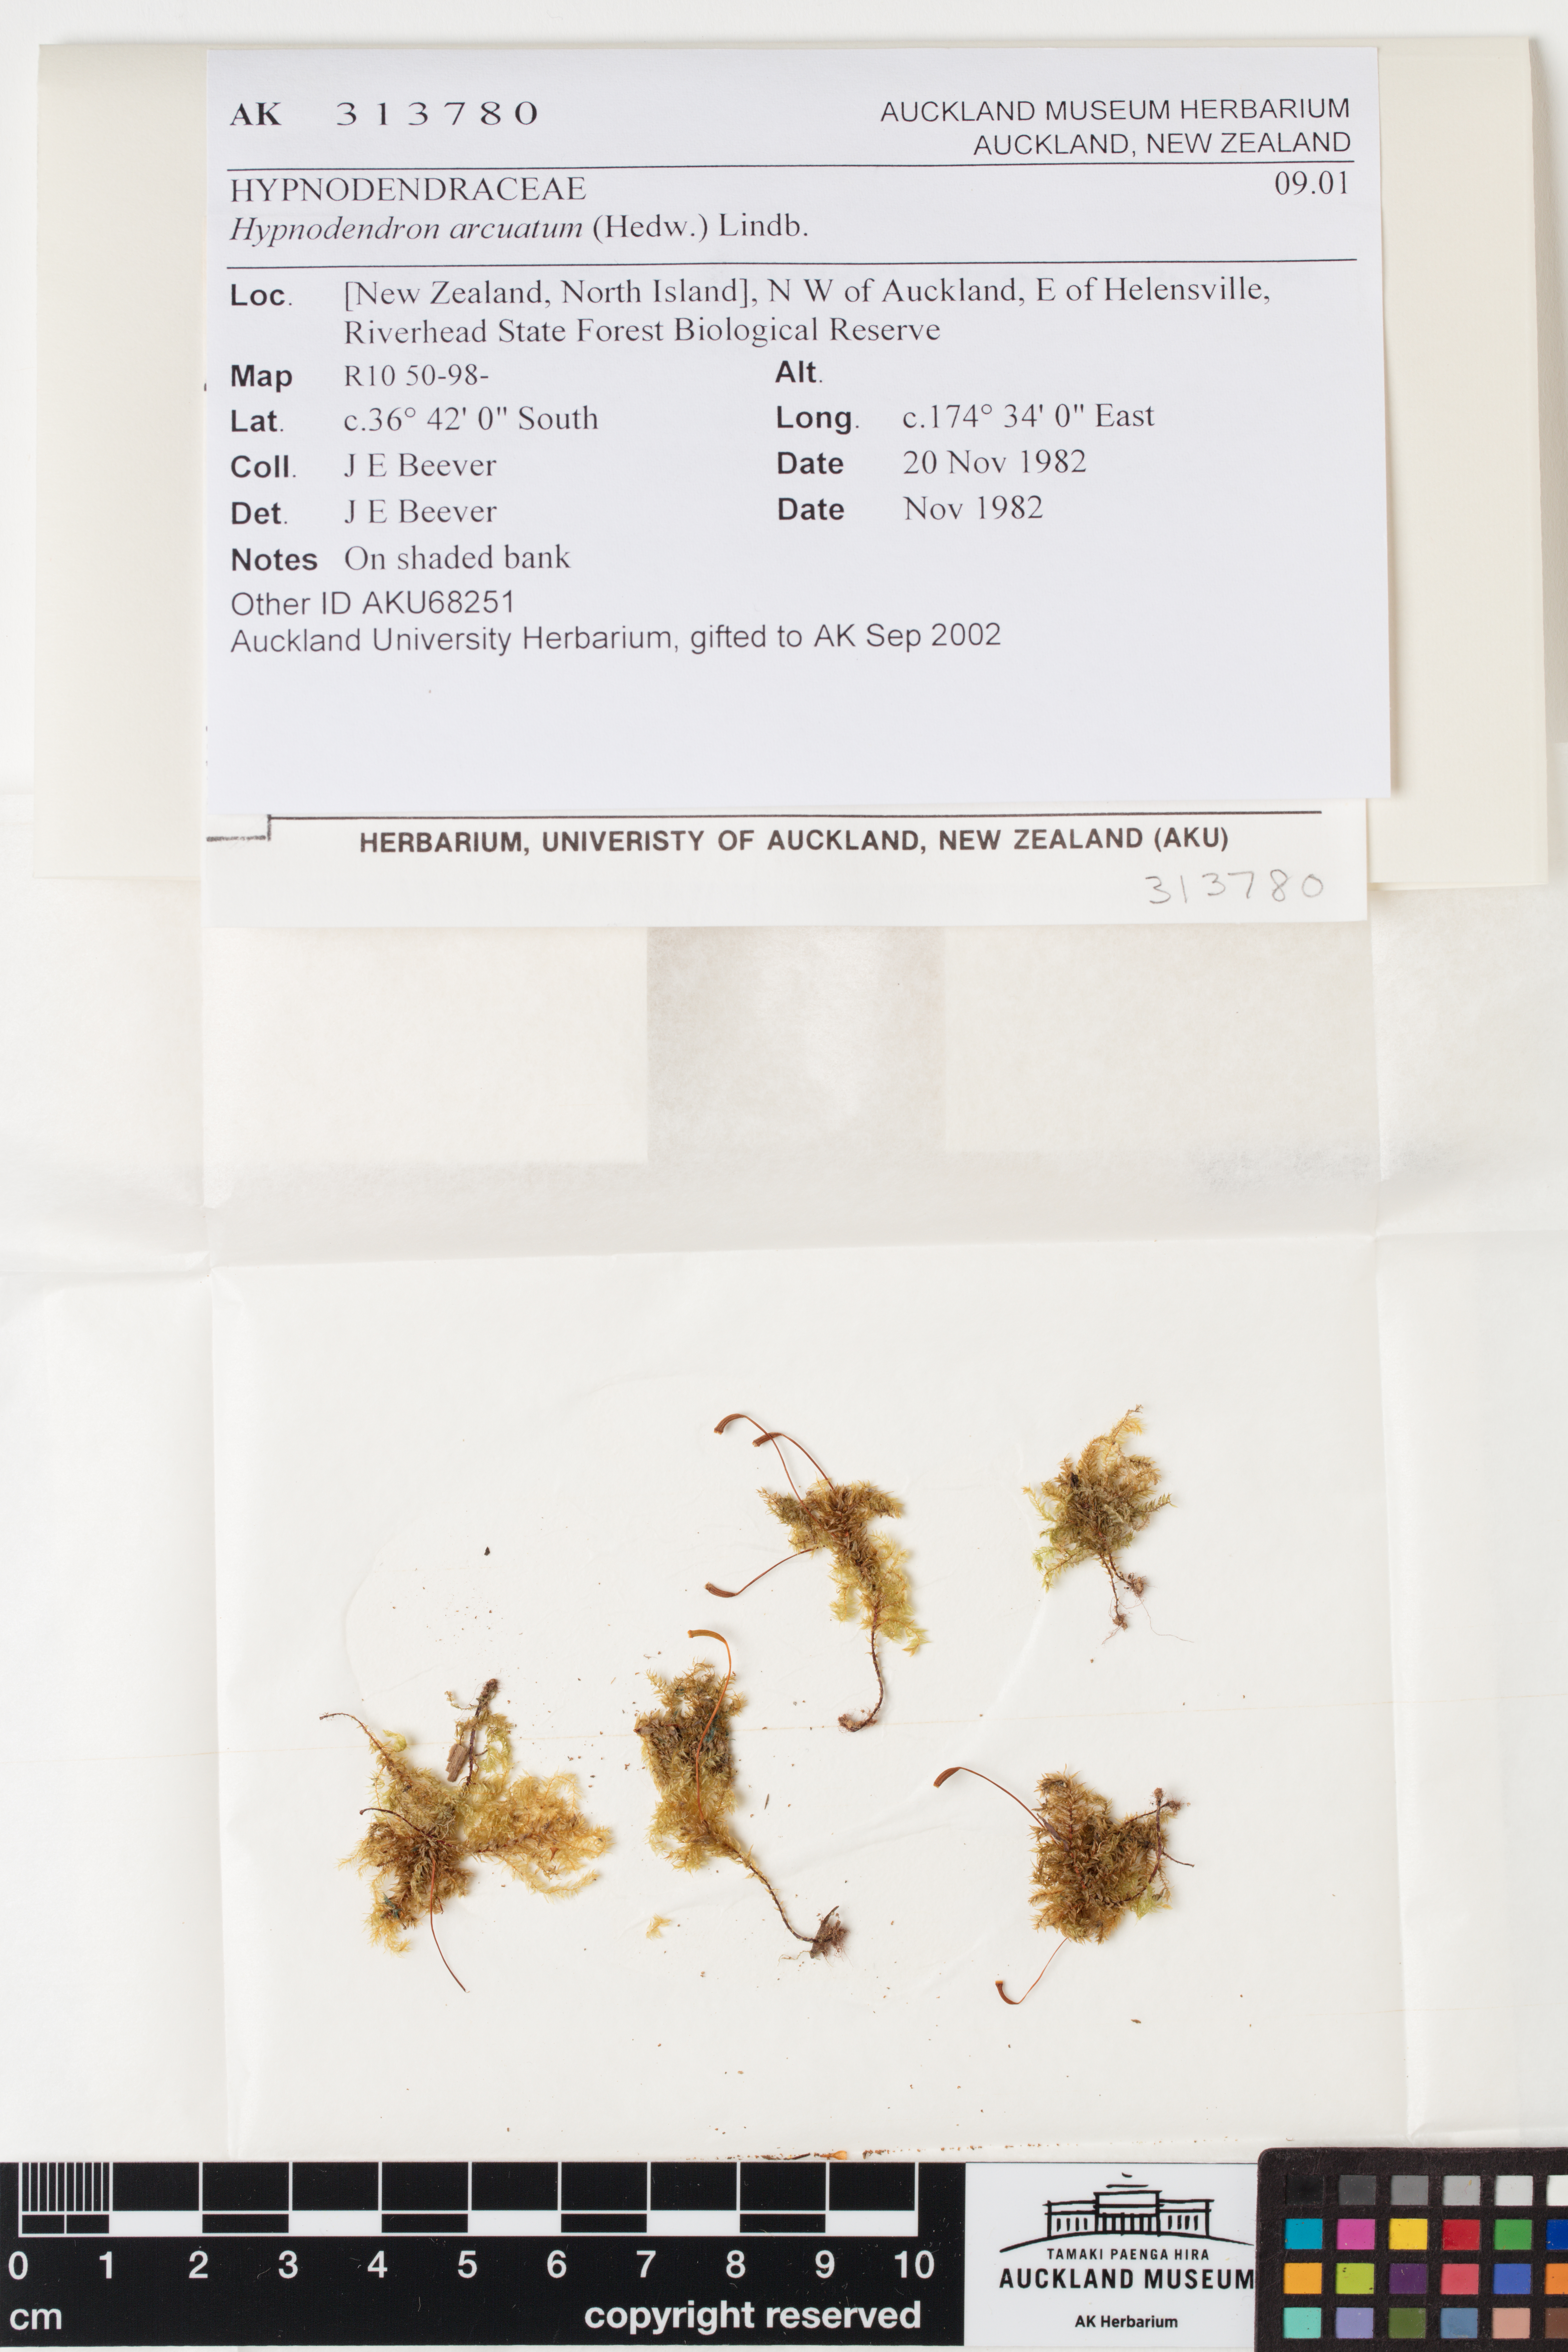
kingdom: Plantae
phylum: Bryophyta
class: Bryopsida
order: Hypnodendrales
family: Spiridentaceae
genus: Hypnodendron
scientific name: Hypnodendron arcuatum
